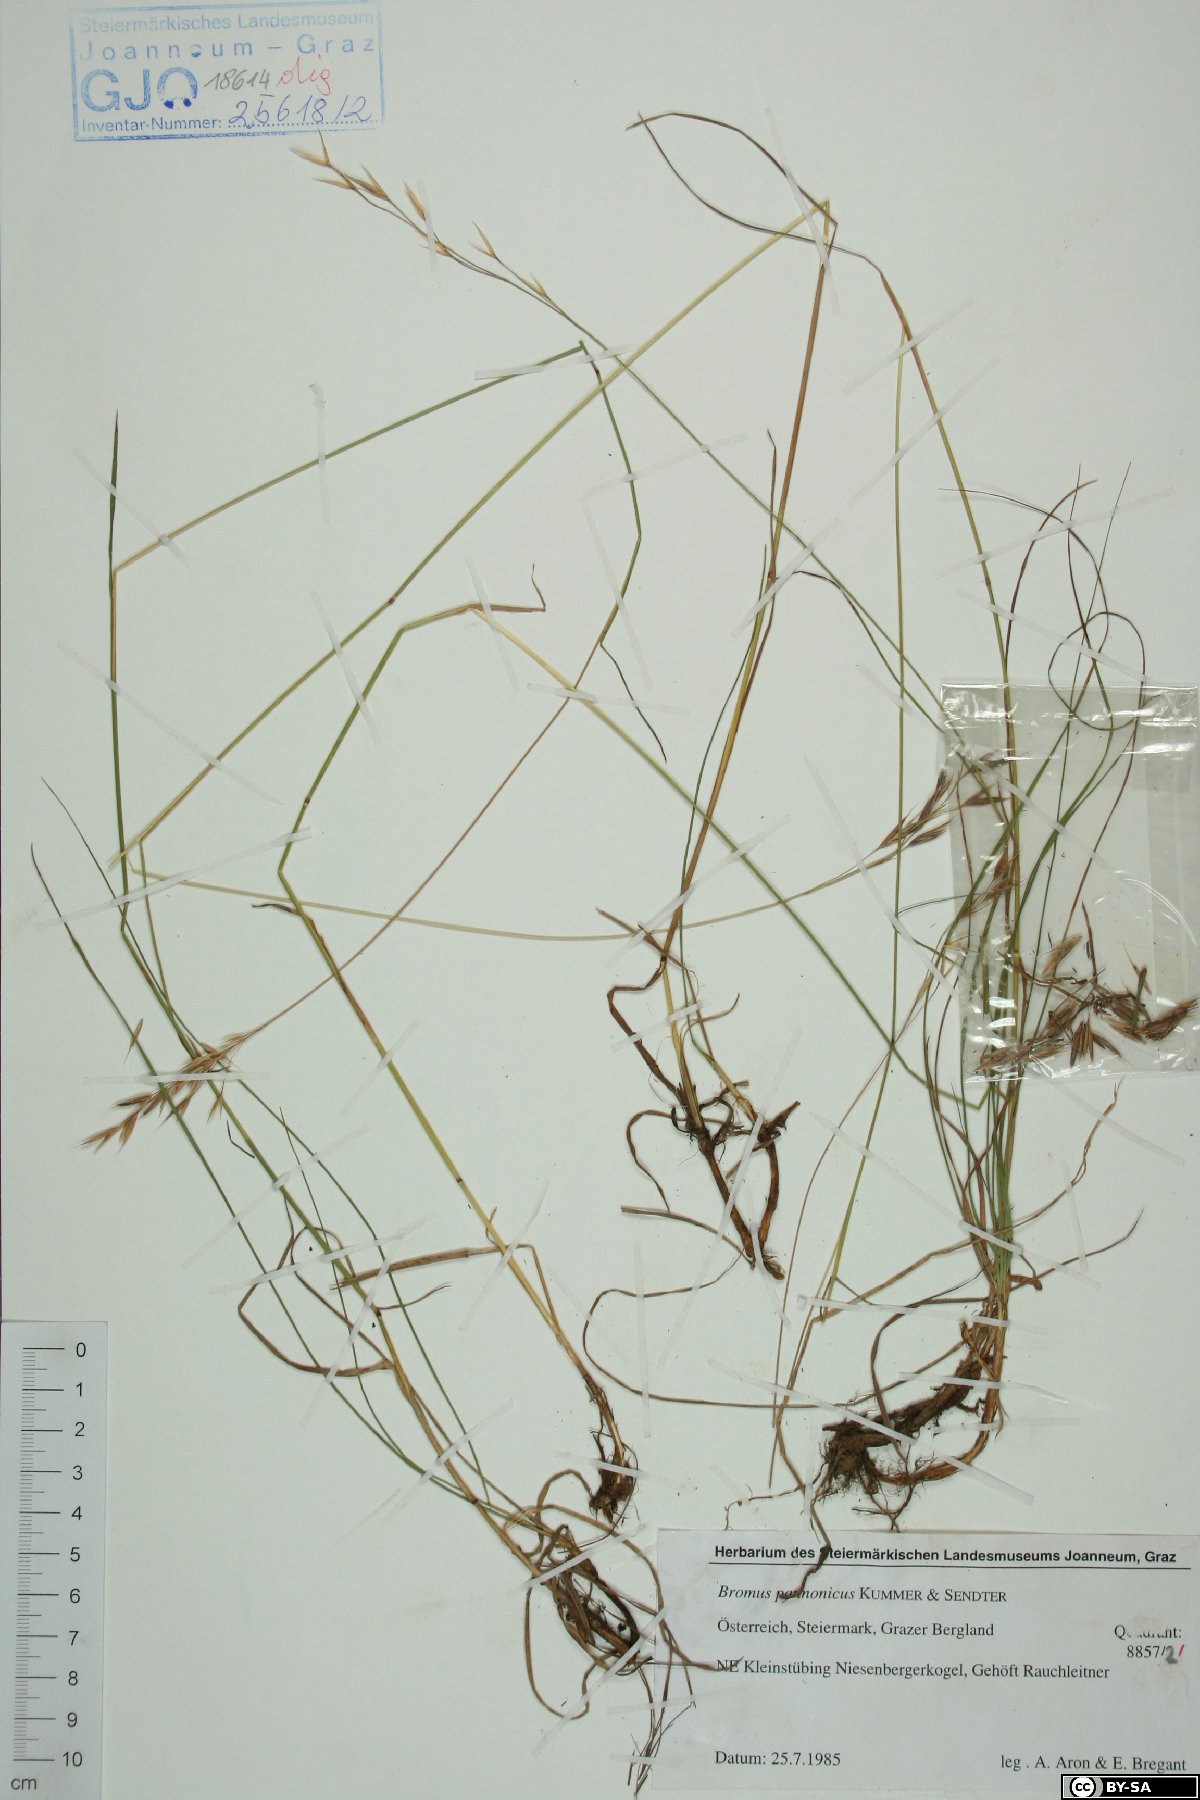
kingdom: Plantae
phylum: Tracheophyta
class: Liliopsida
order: Poales
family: Poaceae
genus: Bromus
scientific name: Bromus pannonicus
